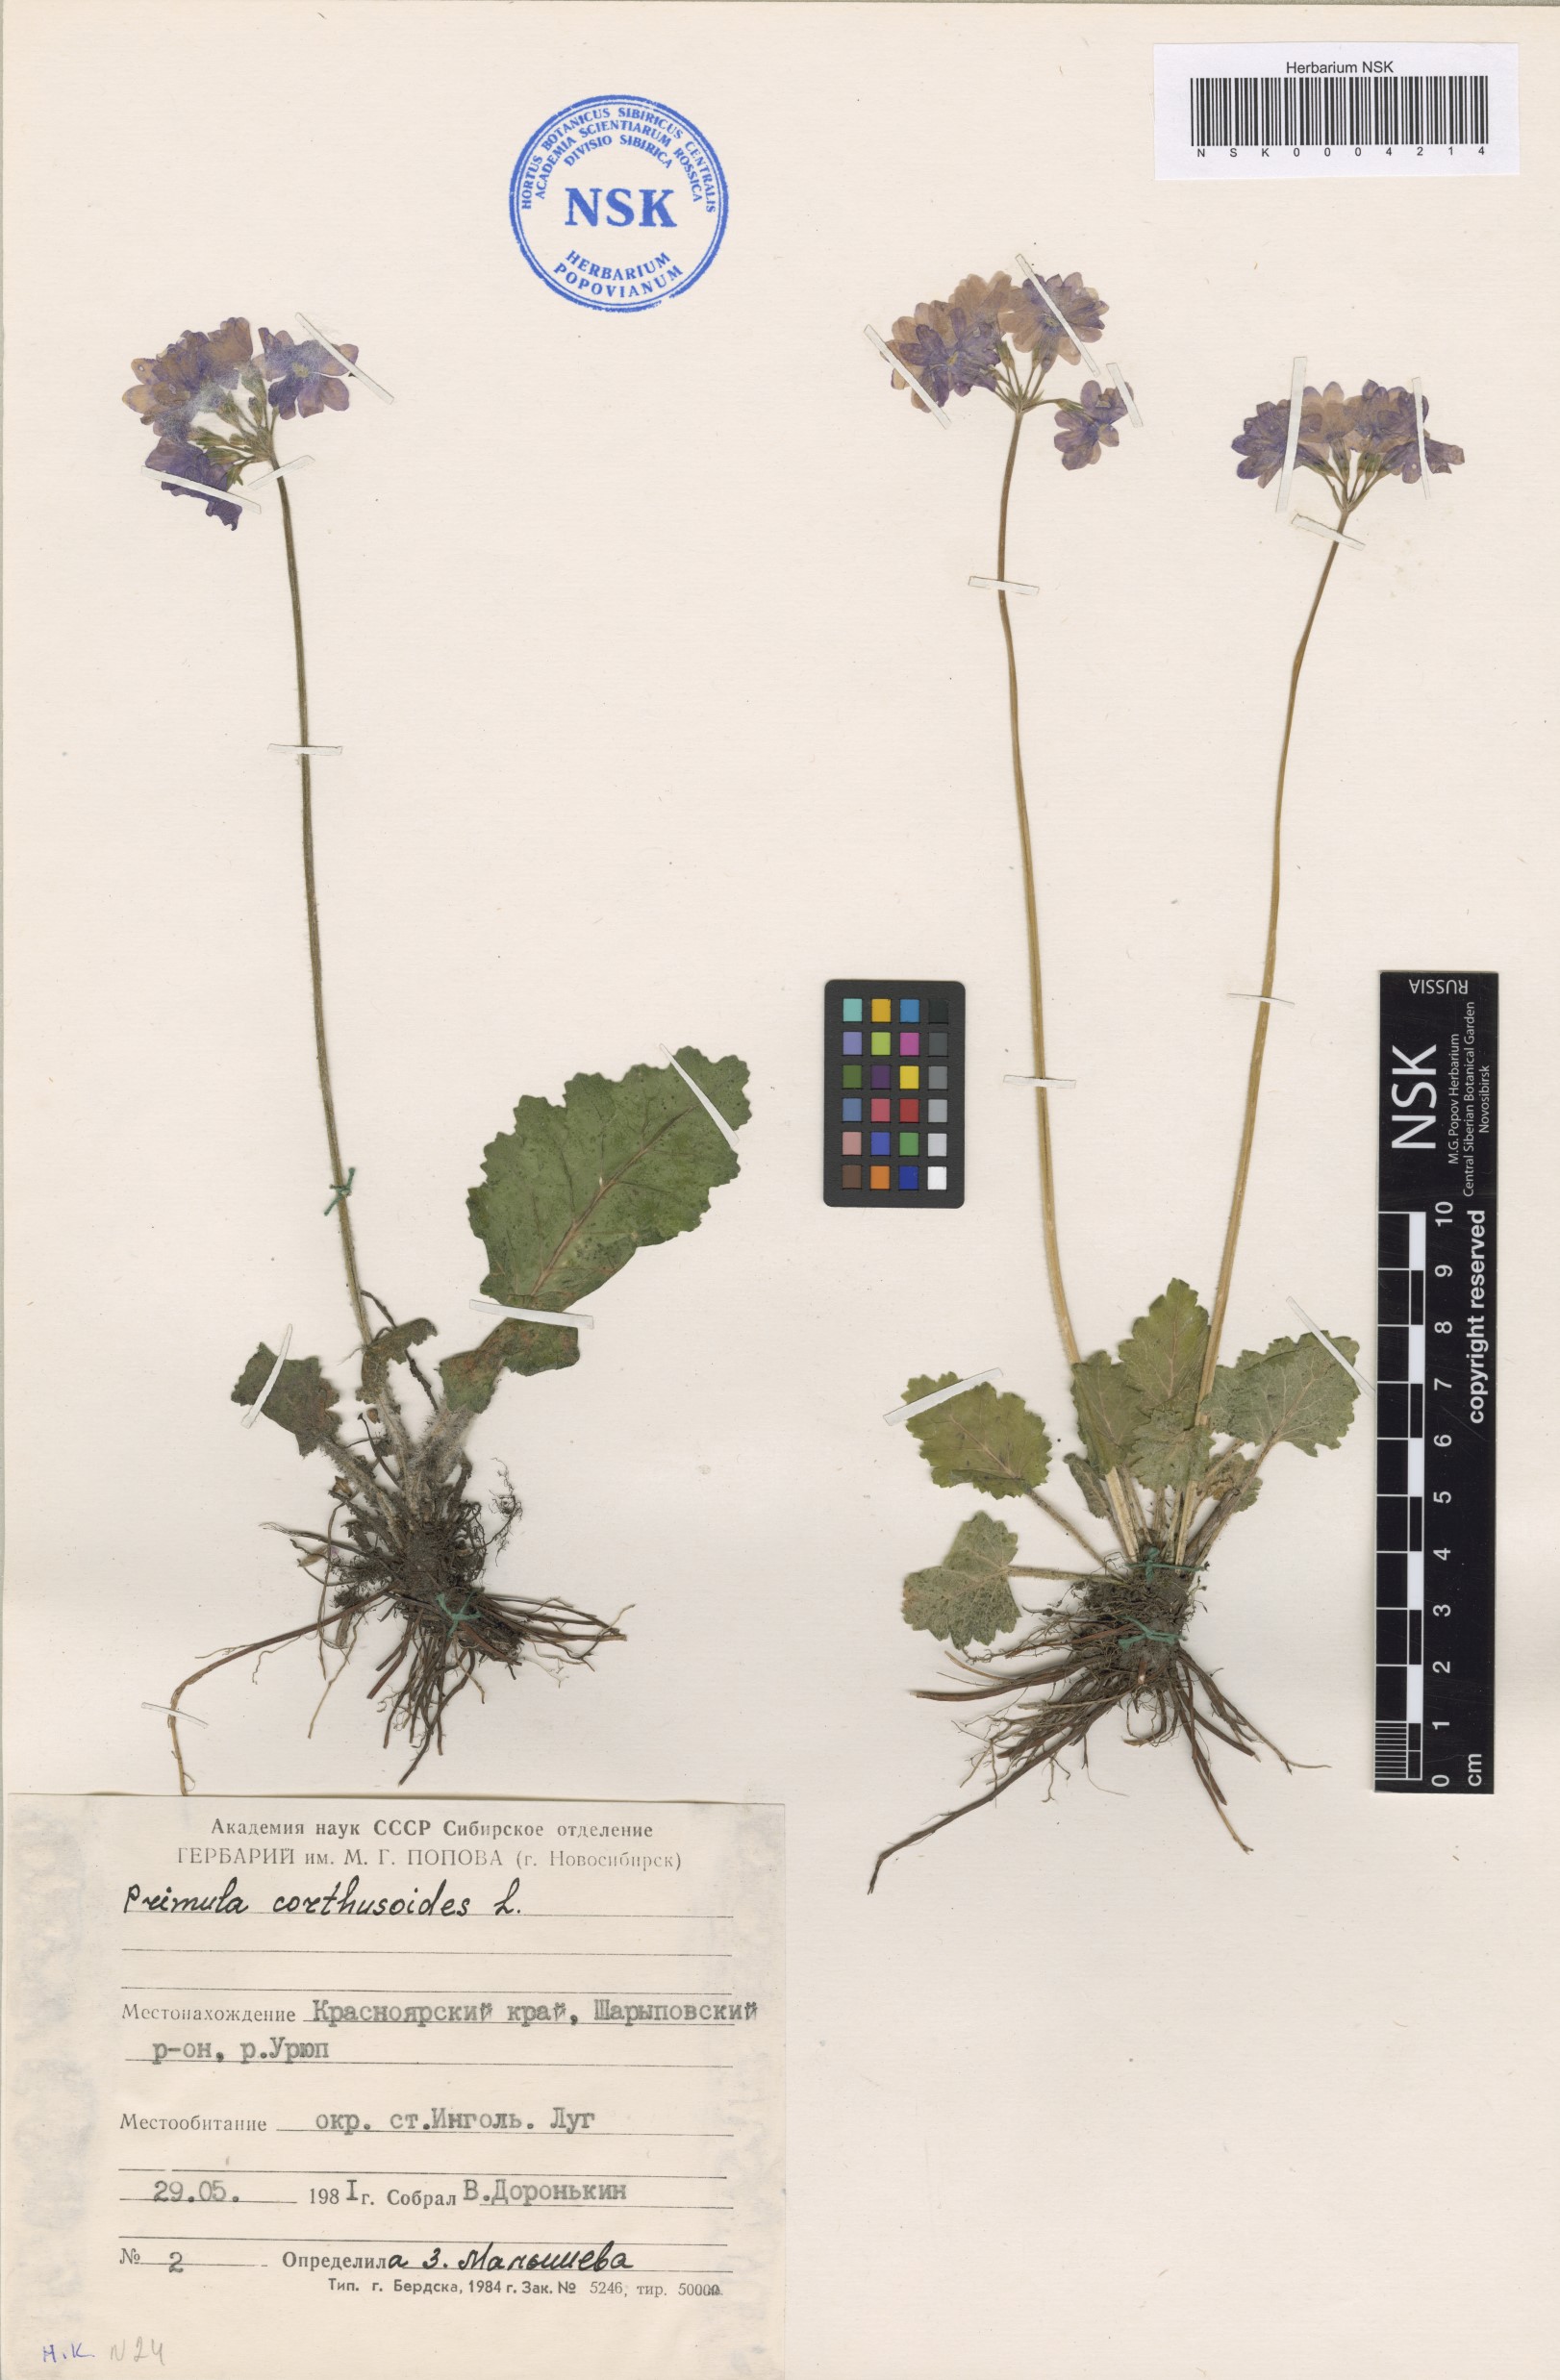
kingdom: Plantae
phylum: Tracheophyta
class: Magnoliopsida
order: Ericales
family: Primulaceae
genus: Primula
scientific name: Primula cortusoides
